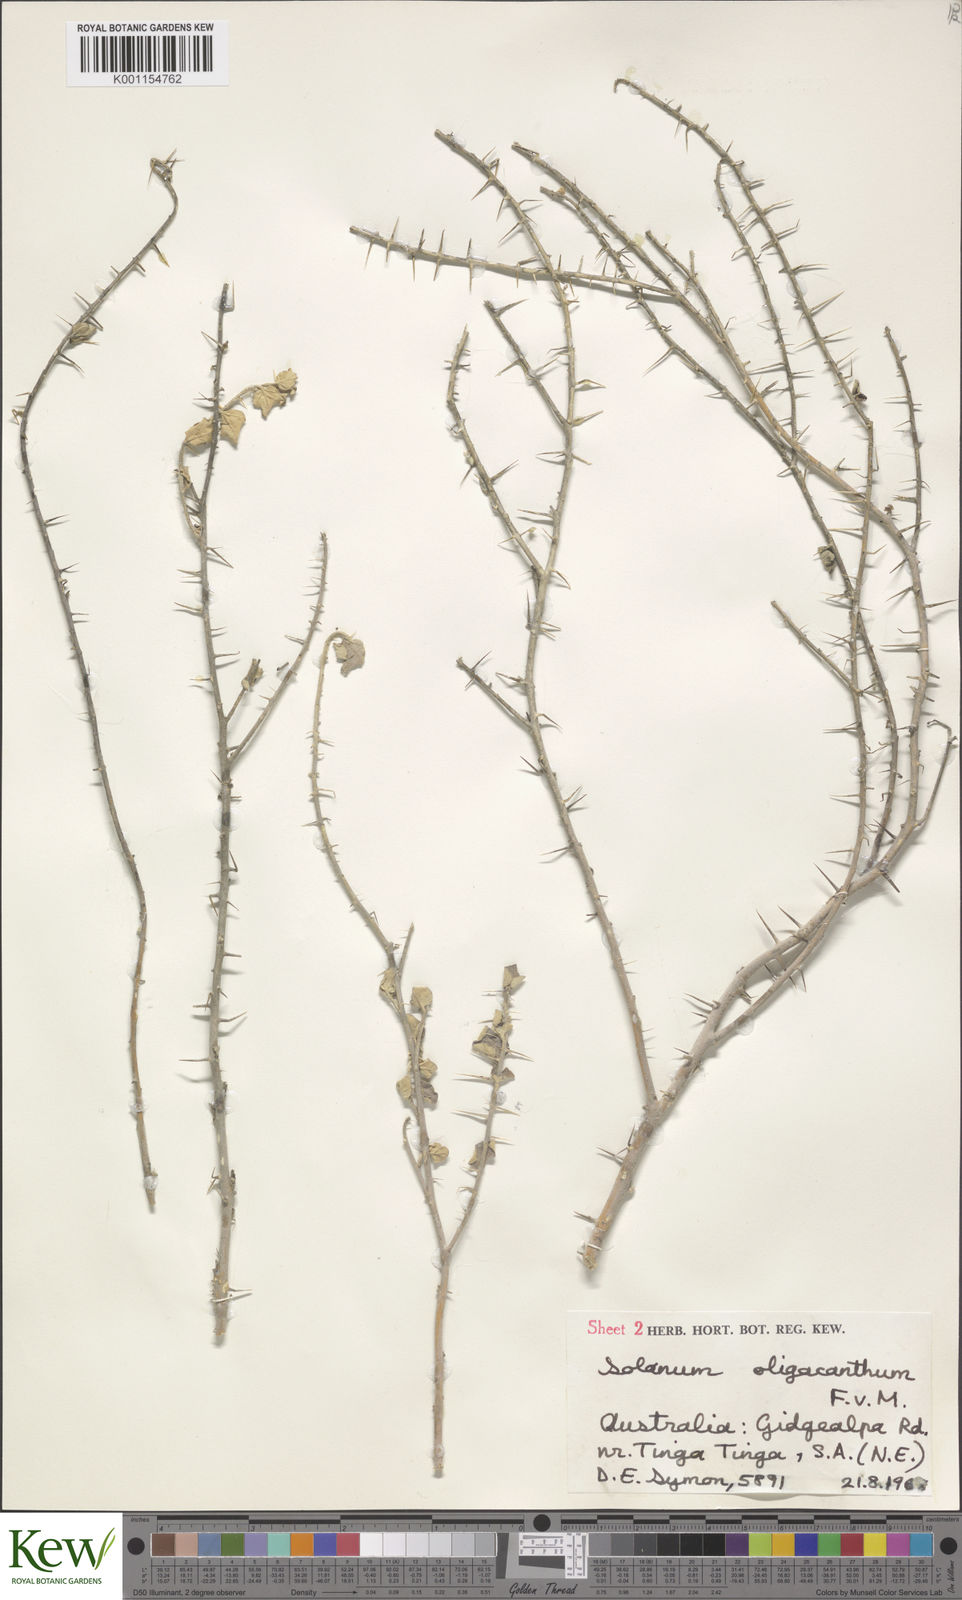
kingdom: Plantae
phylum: Tracheophyta
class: Magnoliopsida
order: Solanales
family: Solanaceae
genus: Solanum
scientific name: Solanum oligacanthum
